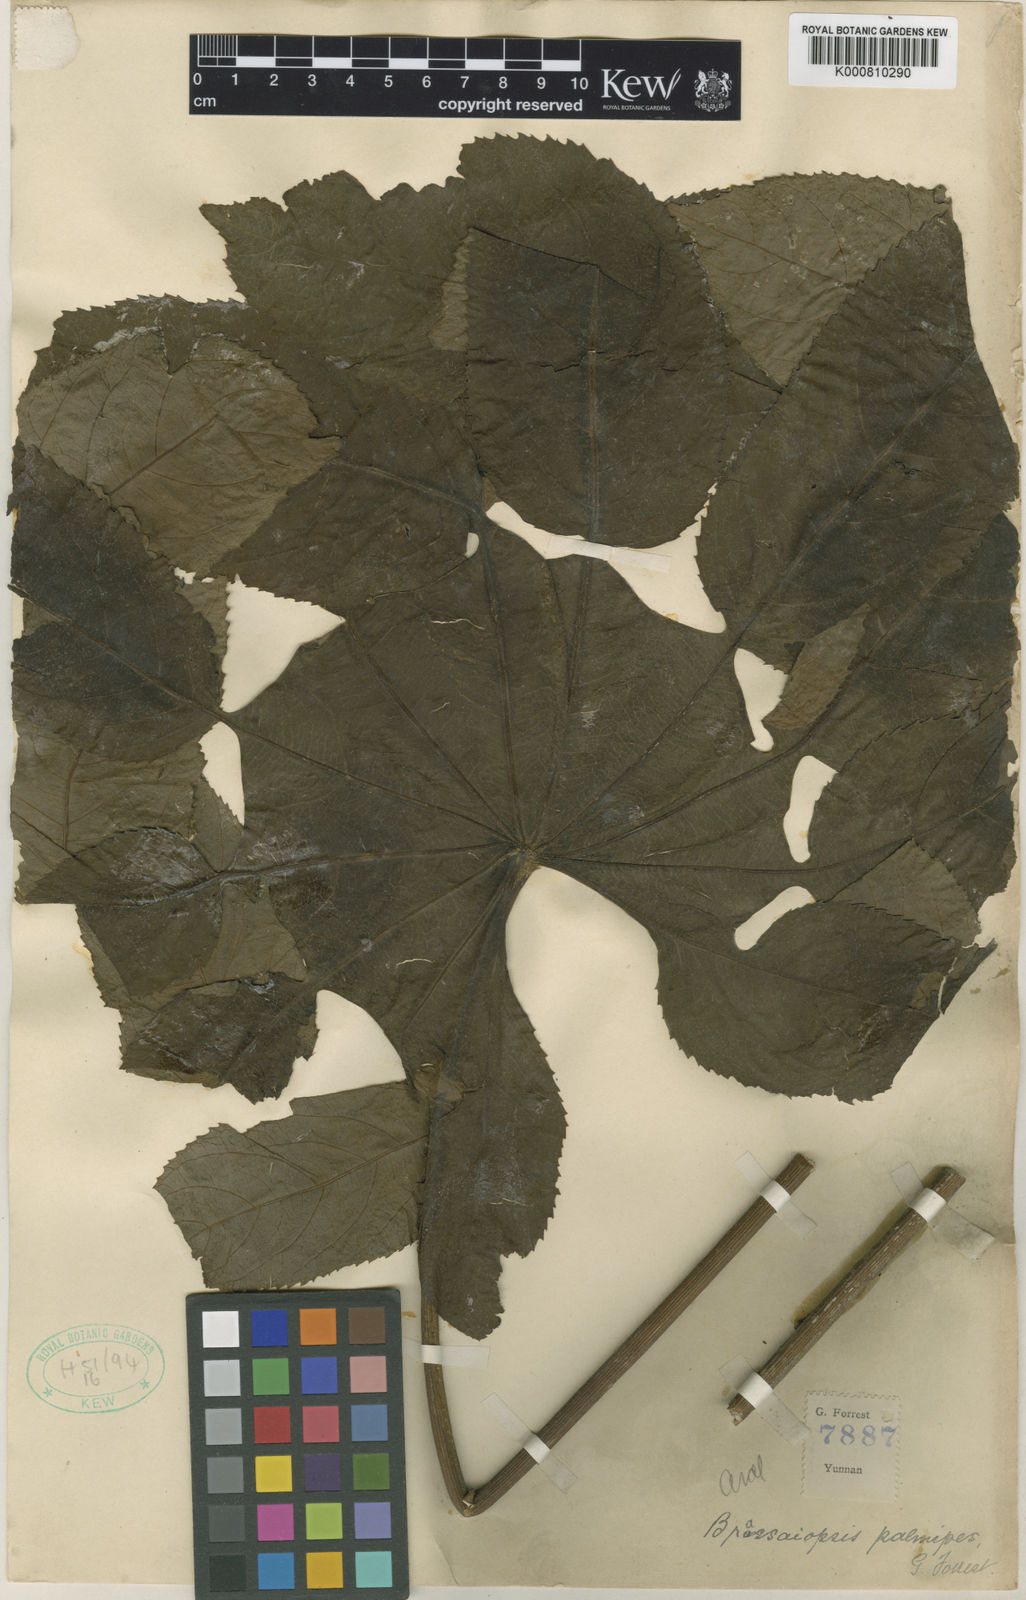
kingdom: Plantae
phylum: Tracheophyta
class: Magnoliopsida
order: Apiales
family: Araliaceae
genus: Brassaiopsis
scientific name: Brassaiopsis ciliata
